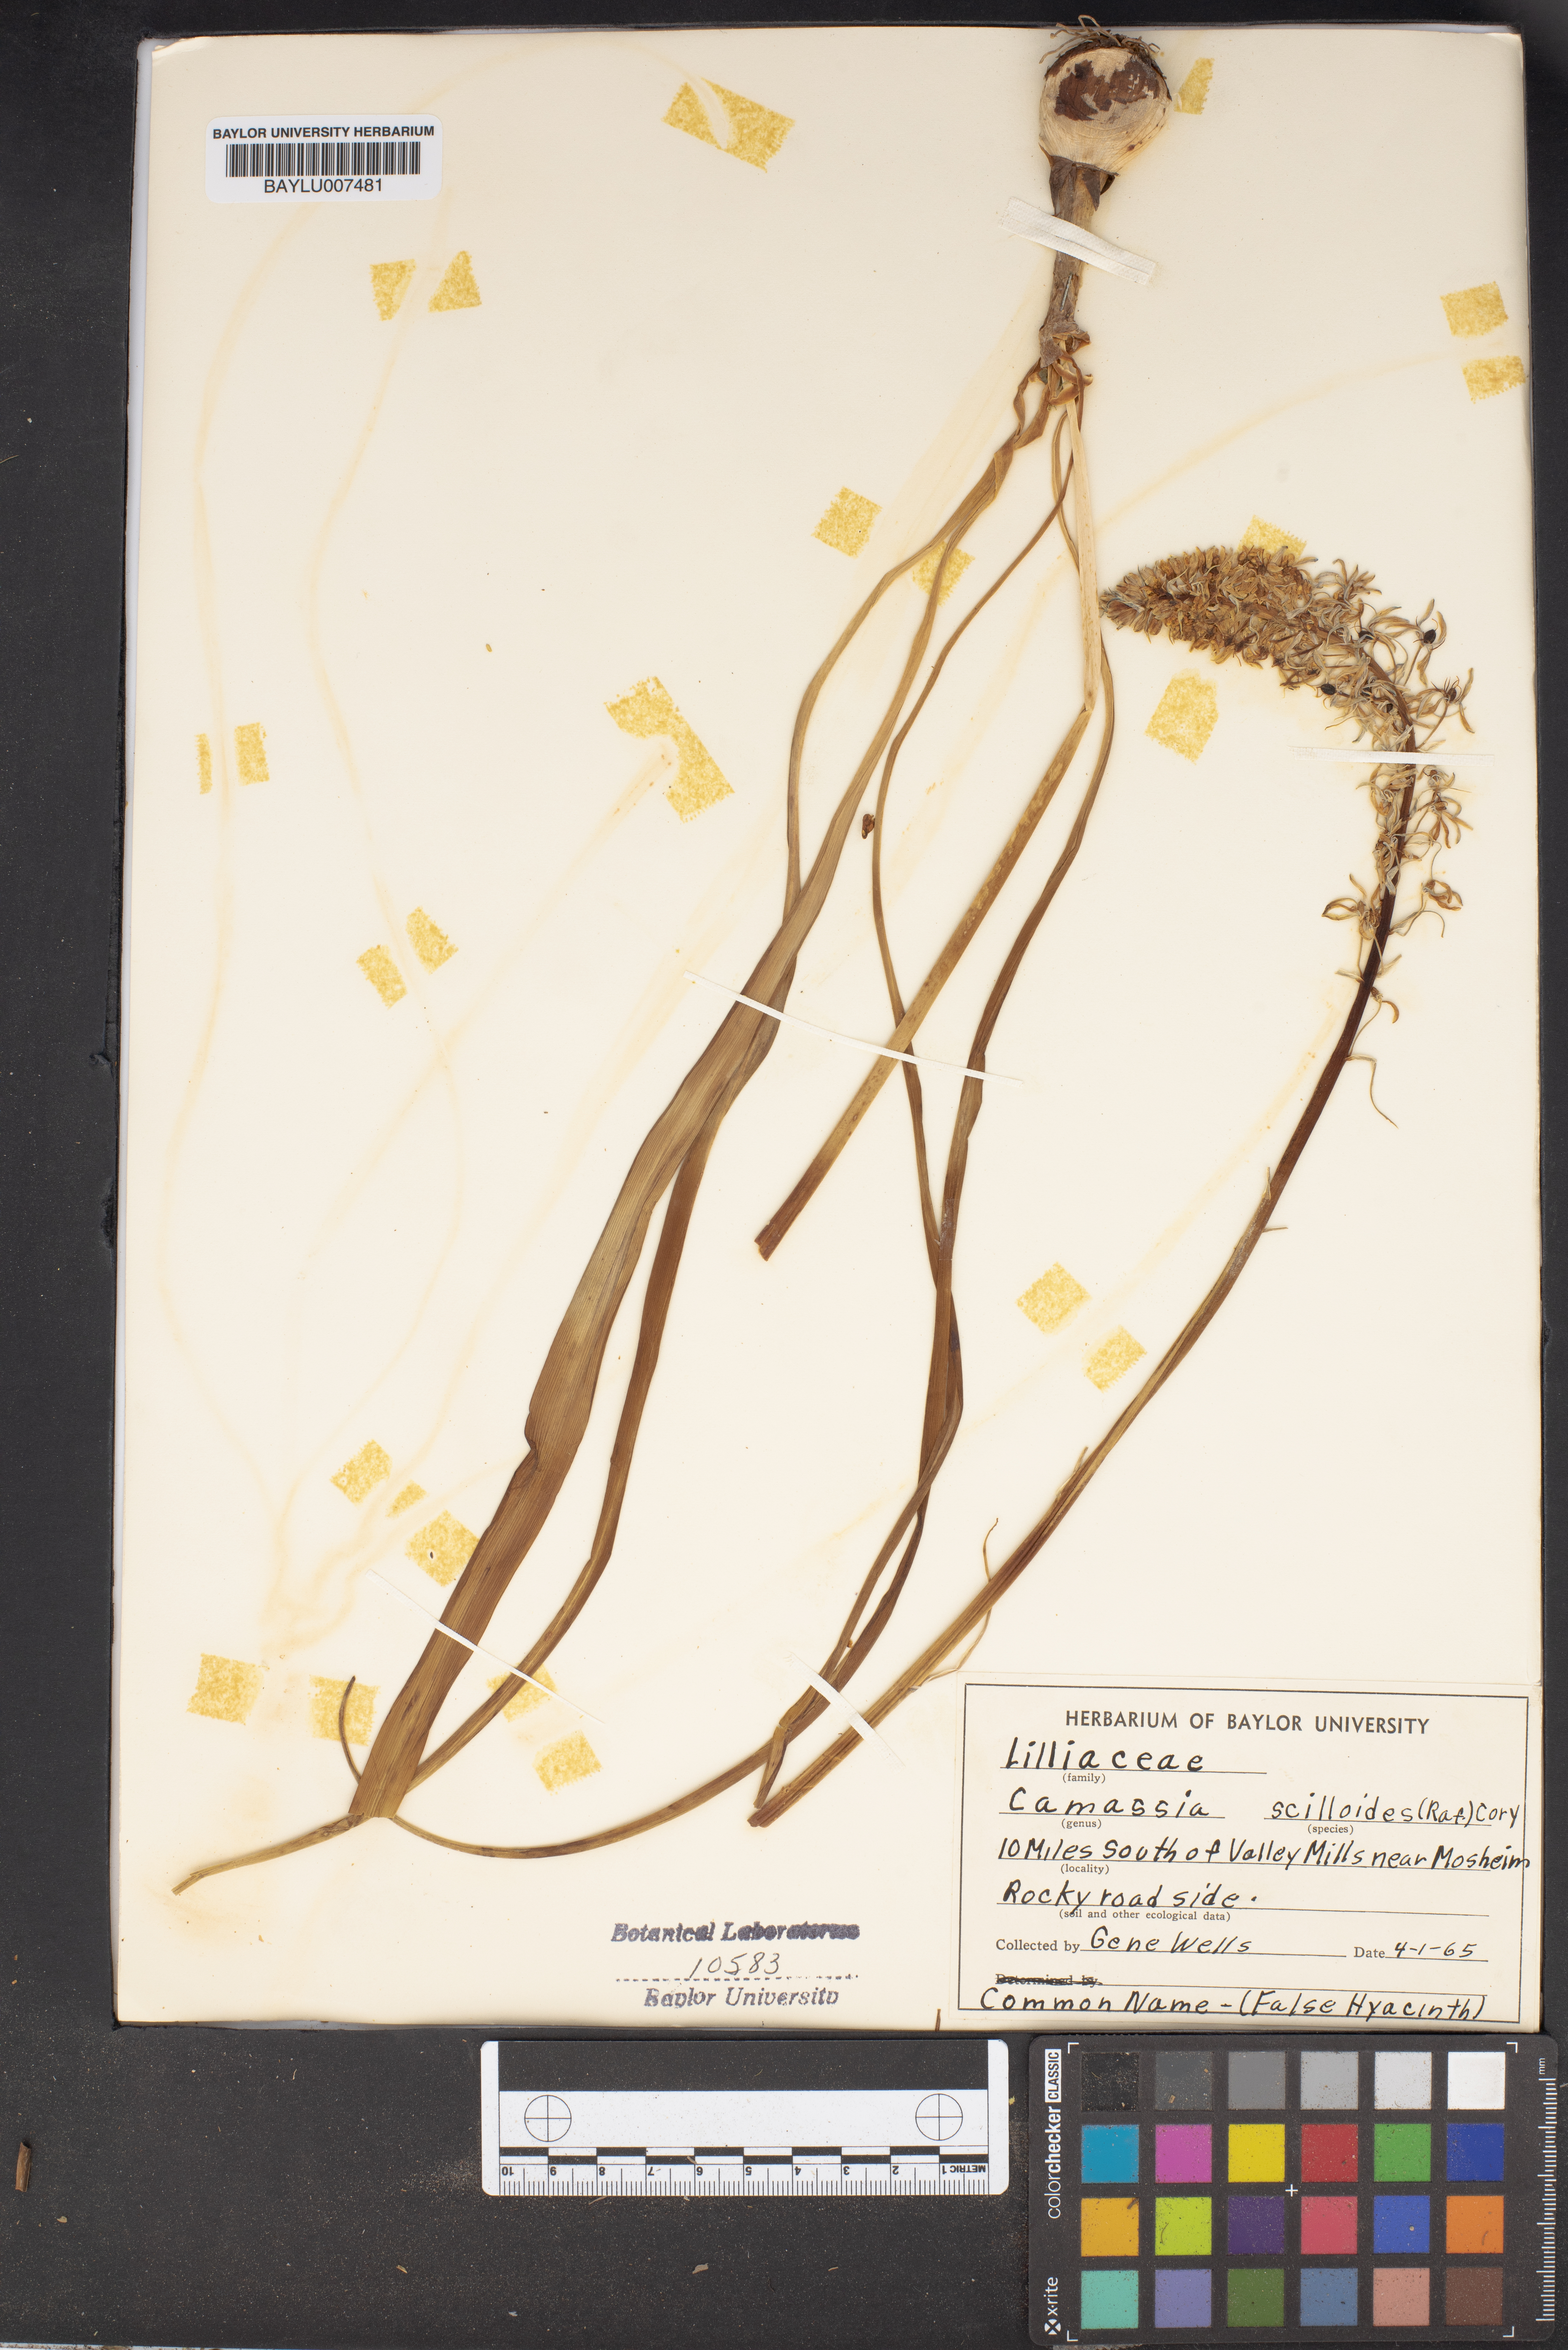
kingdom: Plantae
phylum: Tracheophyta
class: Liliopsida
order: Asparagales
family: Asparagaceae
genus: Camassia
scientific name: Camassia scilloides
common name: Wild hyacinth
